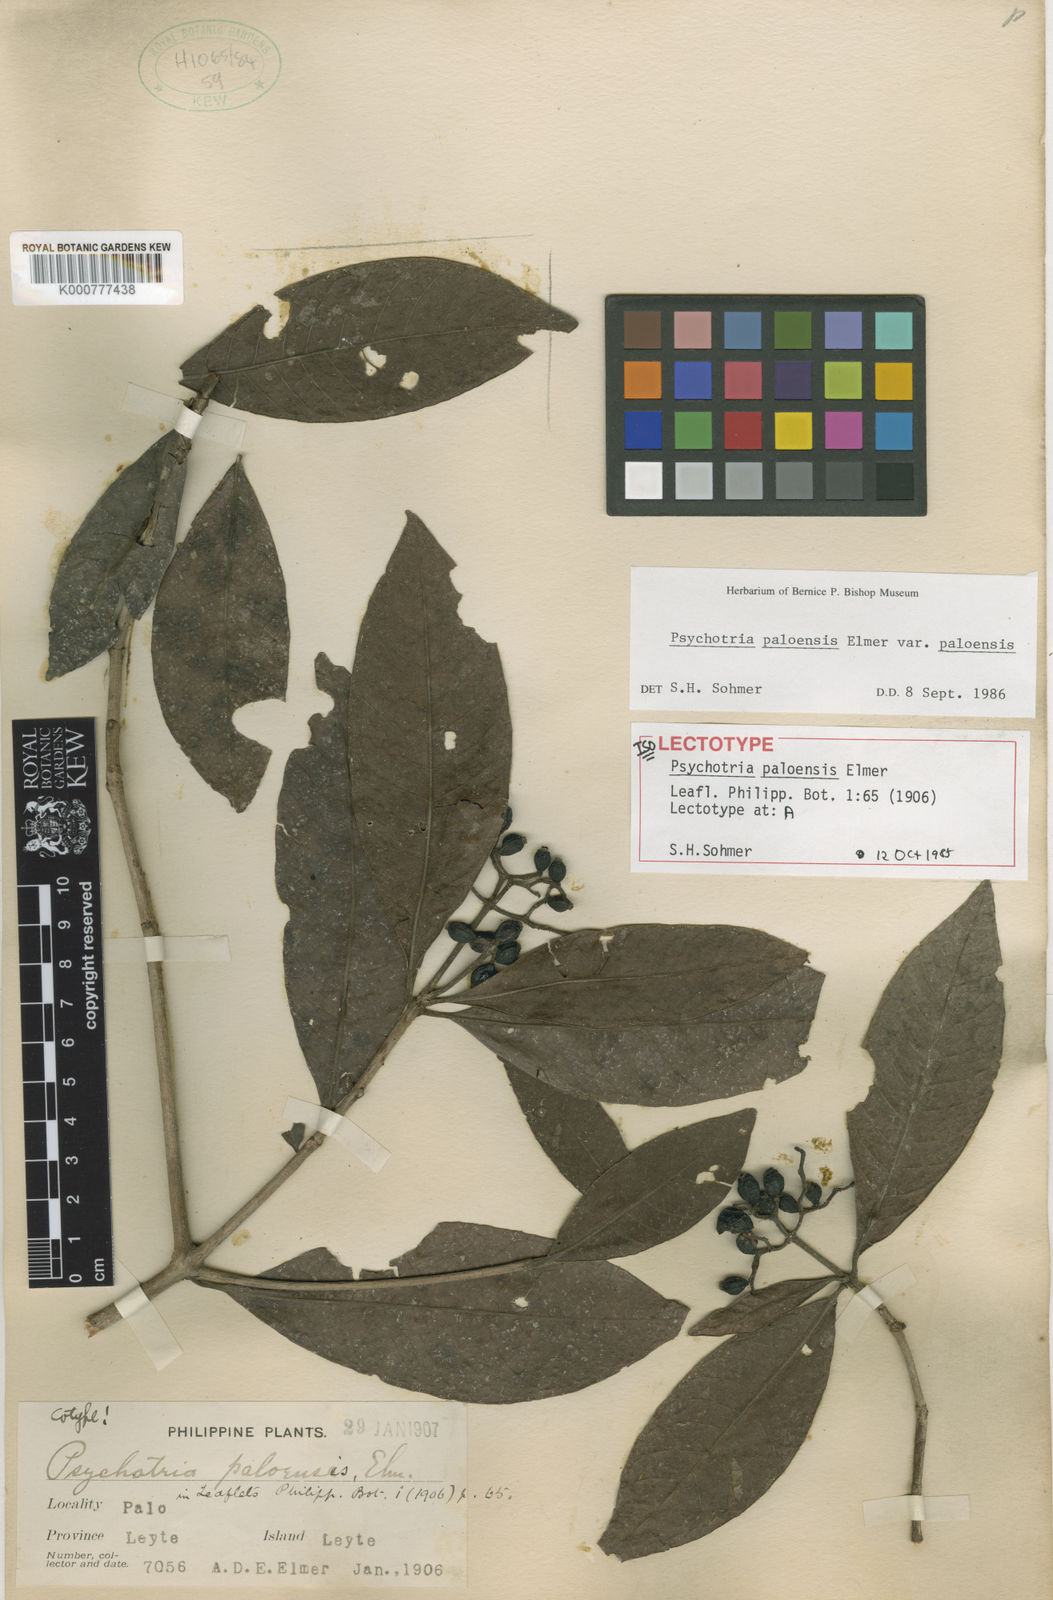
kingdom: Plantae
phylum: Tracheophyta
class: Magnoliopsida
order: Gentianales
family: Rubiaceae
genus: Psychotria
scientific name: Psychotria paloensis
